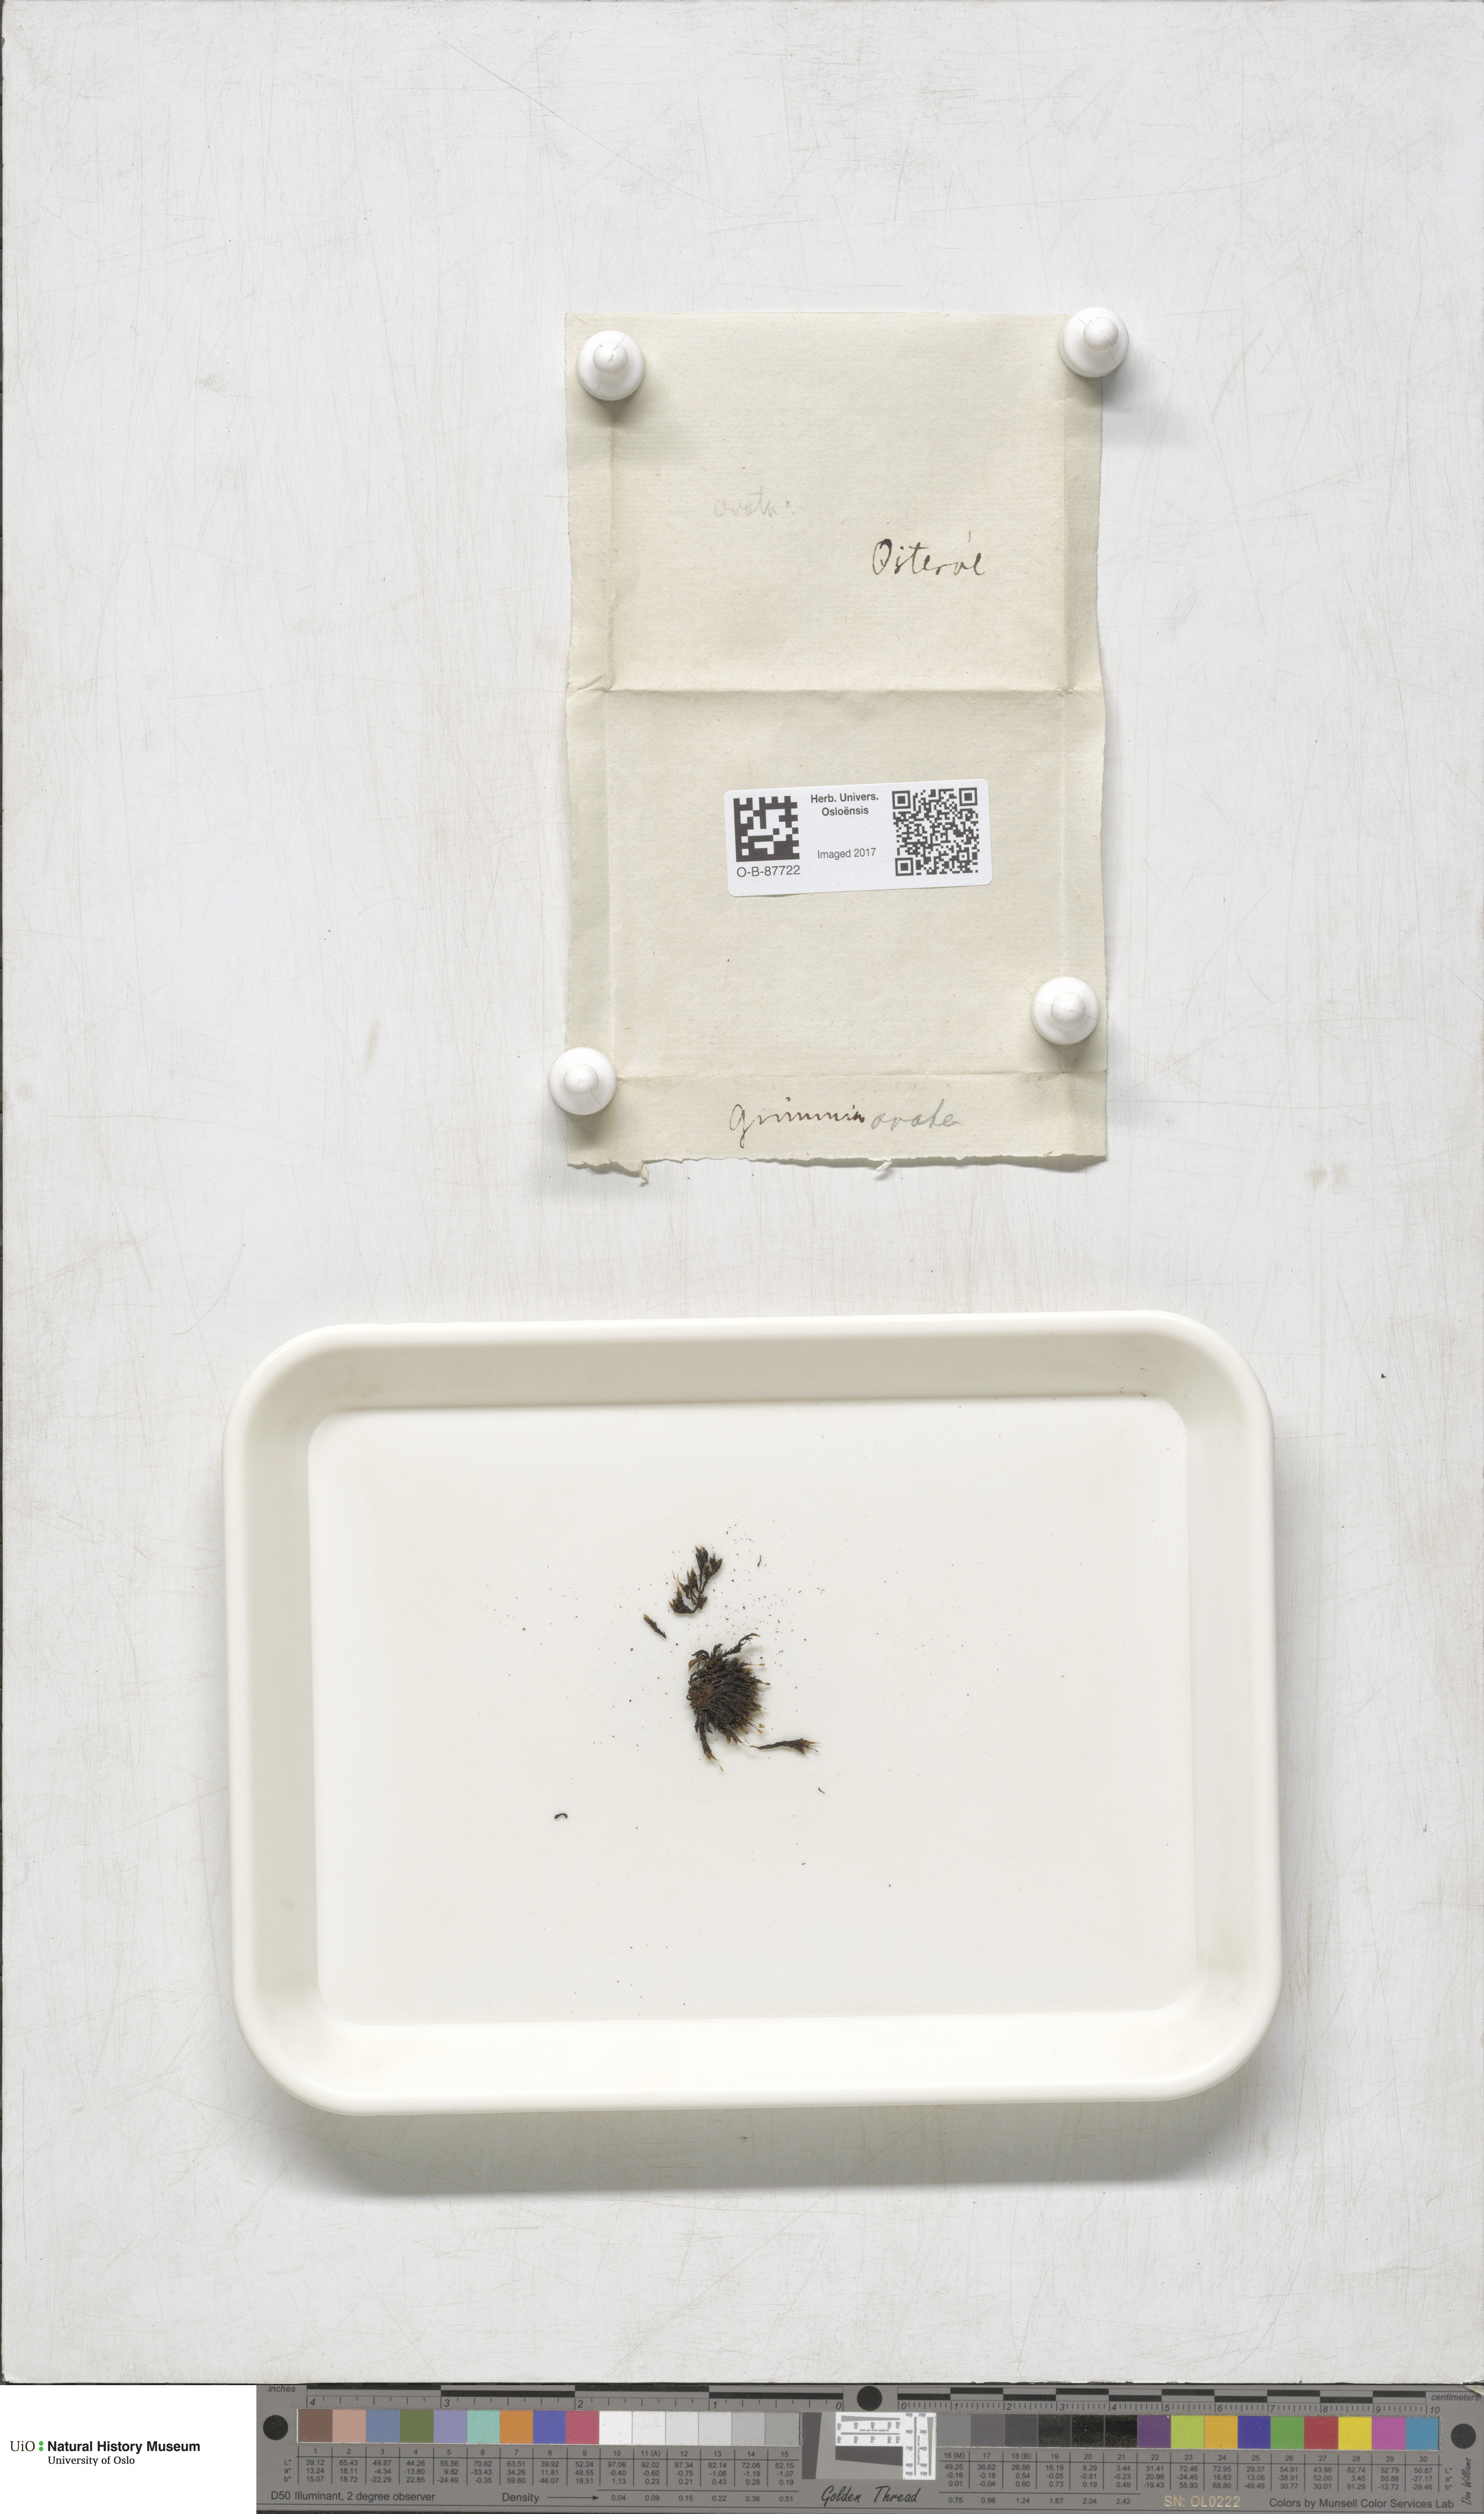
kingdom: Plantae
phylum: Bryophyta
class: Bryopsida
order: Grimmiales
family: Grimmiaceae
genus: Grimmia
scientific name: Grimmia ovalis
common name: Oval grimmia
